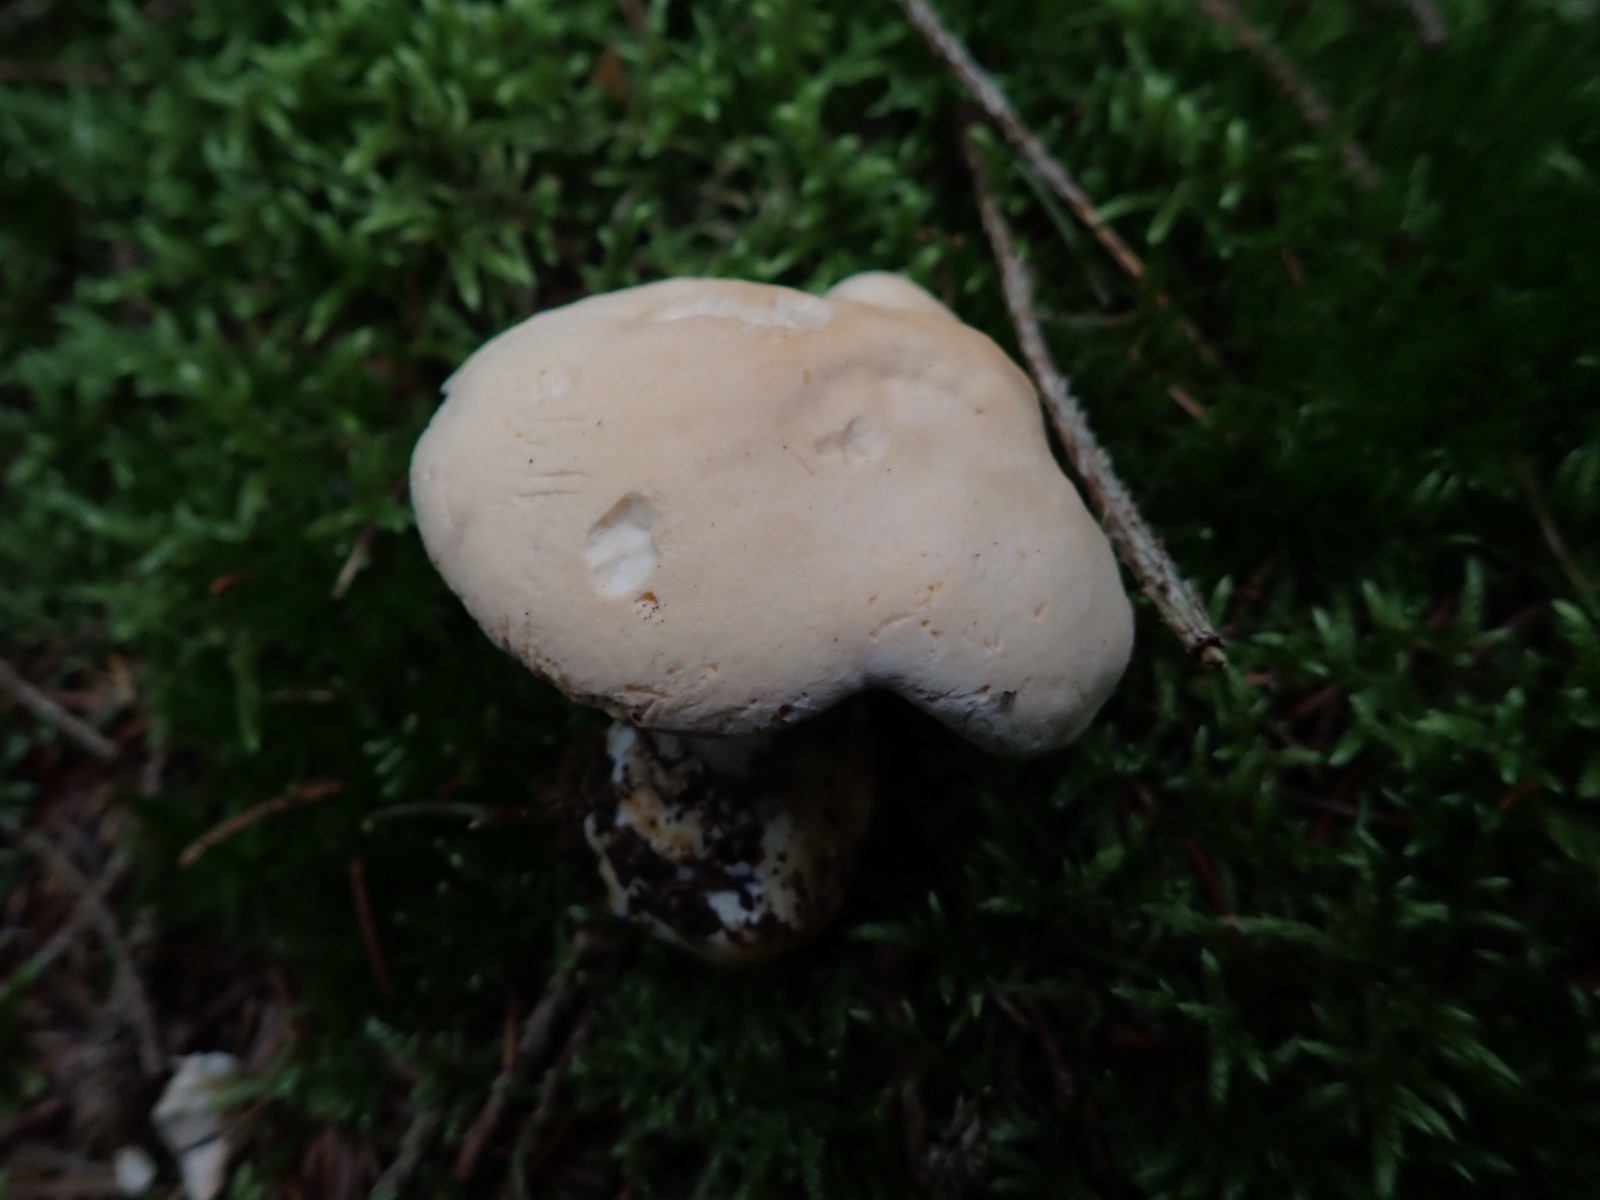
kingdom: Fungi
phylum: Basidiomycota
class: Agaricomycetes
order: Cantharellales
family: Hydnaceae
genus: Hydnum
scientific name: Hydnum repandum
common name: almindelig pigsvamp
